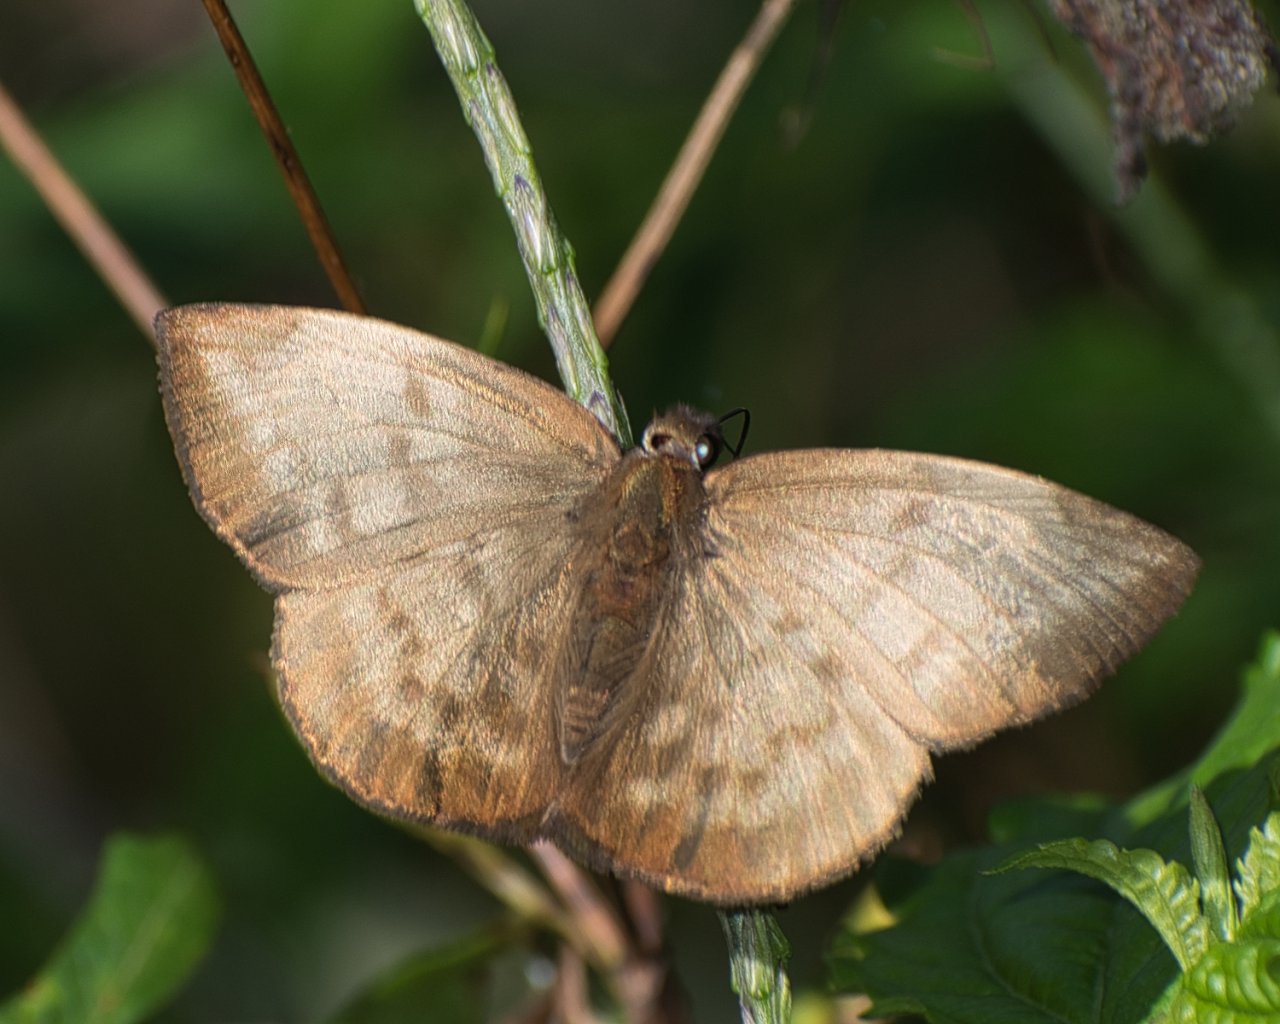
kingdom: Animalia
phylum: Arthropoda
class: Insecta
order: Lepidoptera
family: Hesperiidae
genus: Achlyodes
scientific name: Achlyodes pallida
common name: Pale Sicklewing
